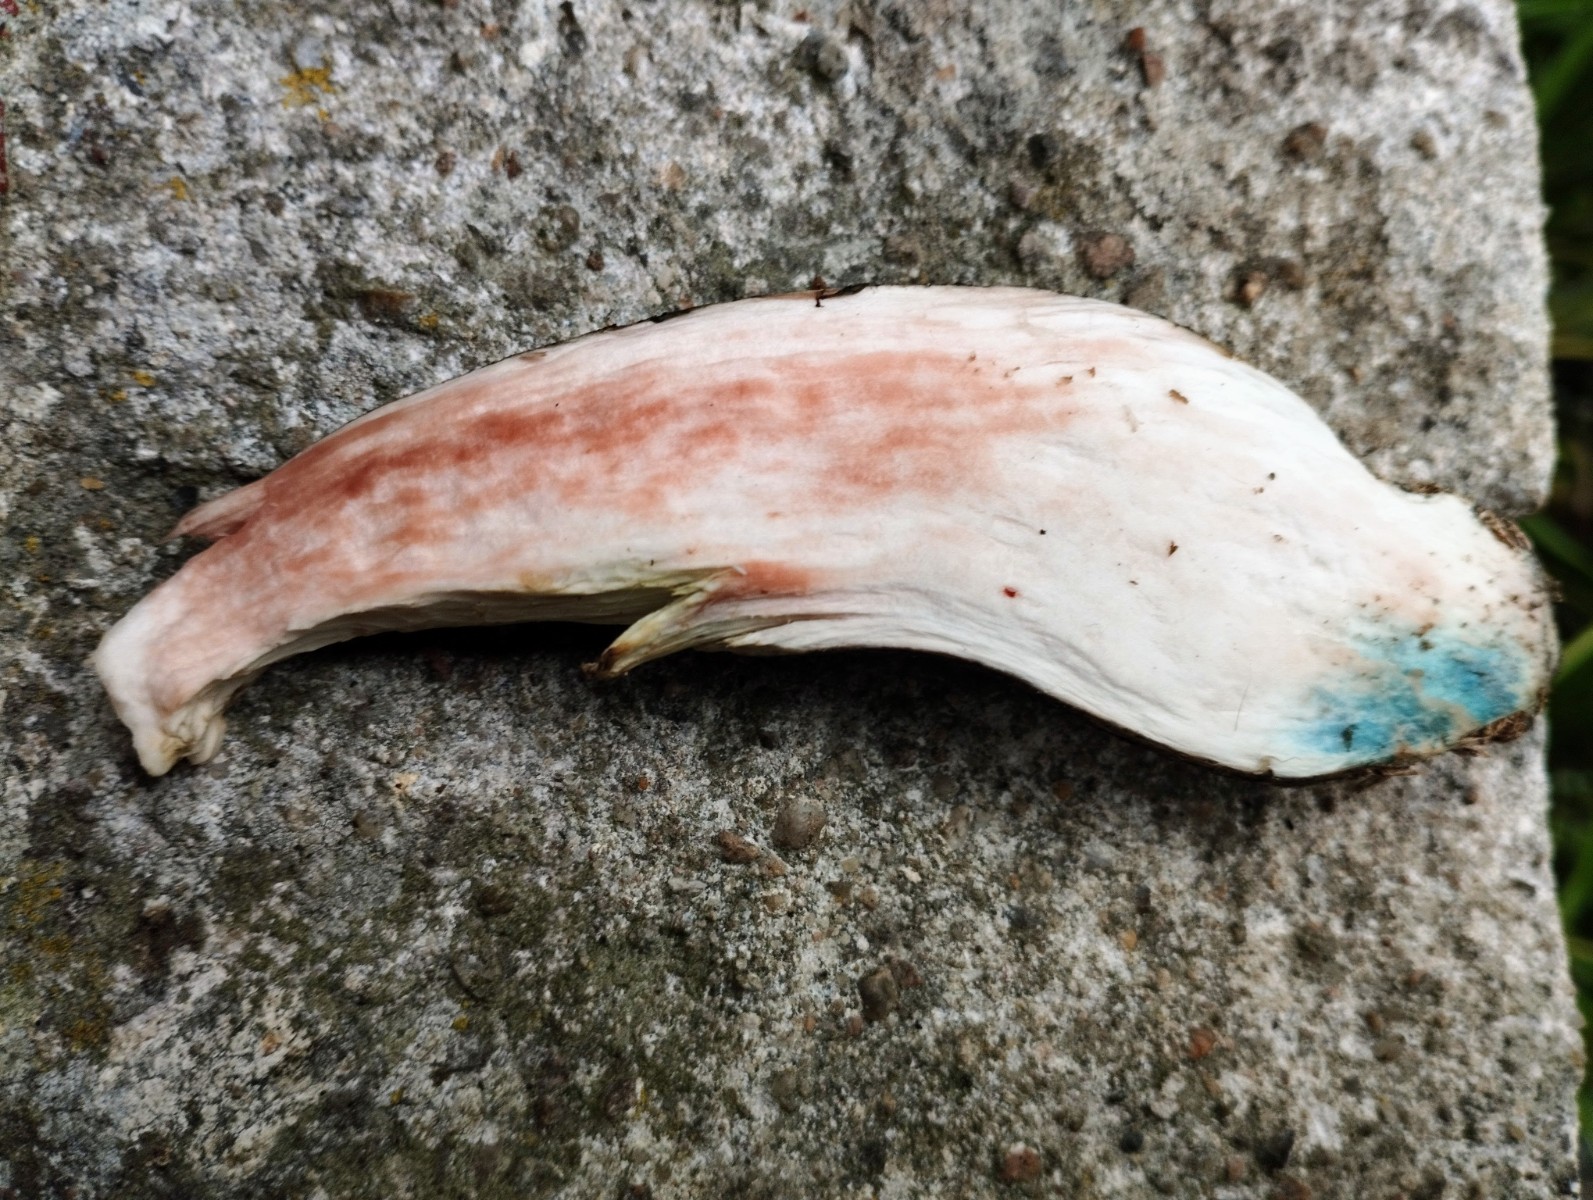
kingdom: Fungi
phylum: Basidiomycota
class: Agaricomycetes
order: Boletales
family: Boletaceae
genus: Leccinum
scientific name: Leccinum variicolor
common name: flammet skælrørhat
